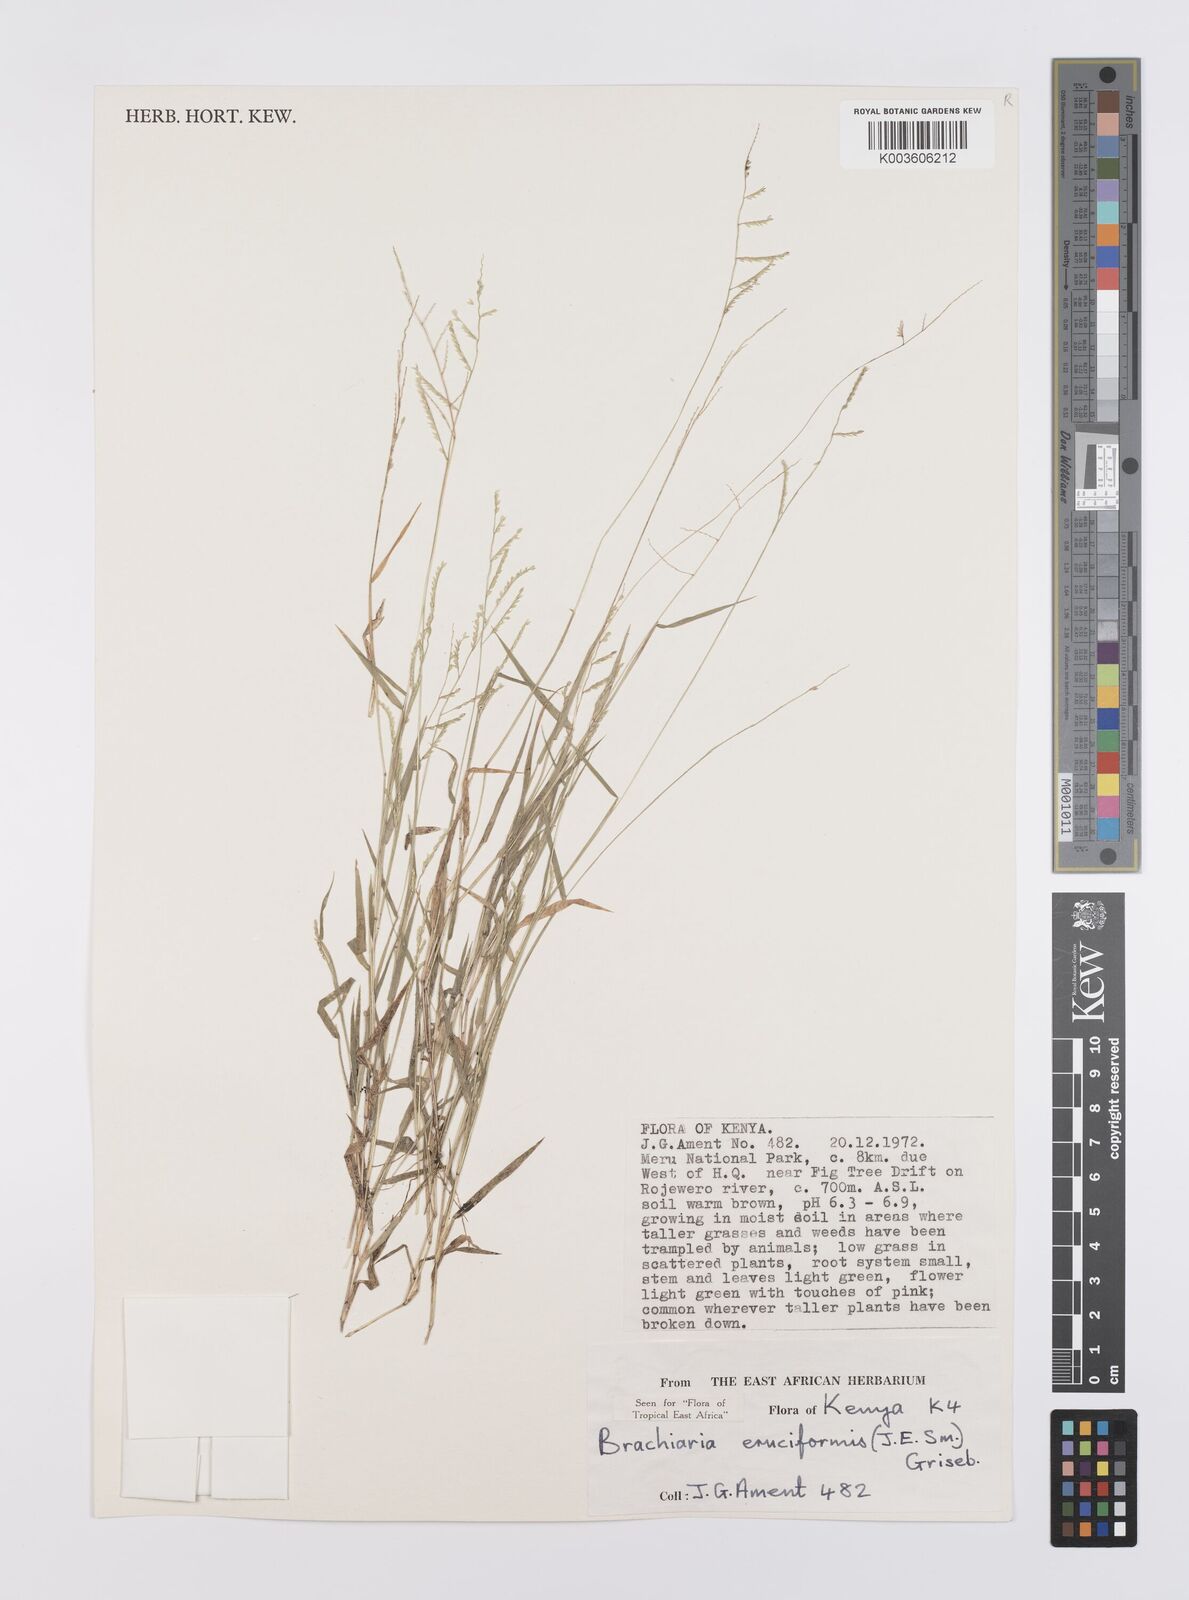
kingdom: Plantae
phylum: Tracheophyta
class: Liliopsida
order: Poales
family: Poaceae
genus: Moorochloa
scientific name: Moorochloa eruciformis
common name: Sweet signalgrass
